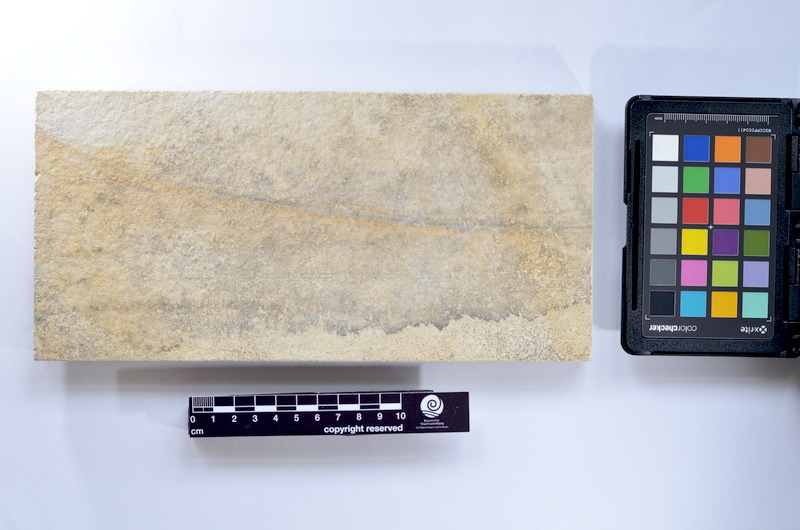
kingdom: Animalia
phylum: Chordata
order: Elopiformes
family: Anaethalionidae
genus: Anaethalion
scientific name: Anaethalion knorri
